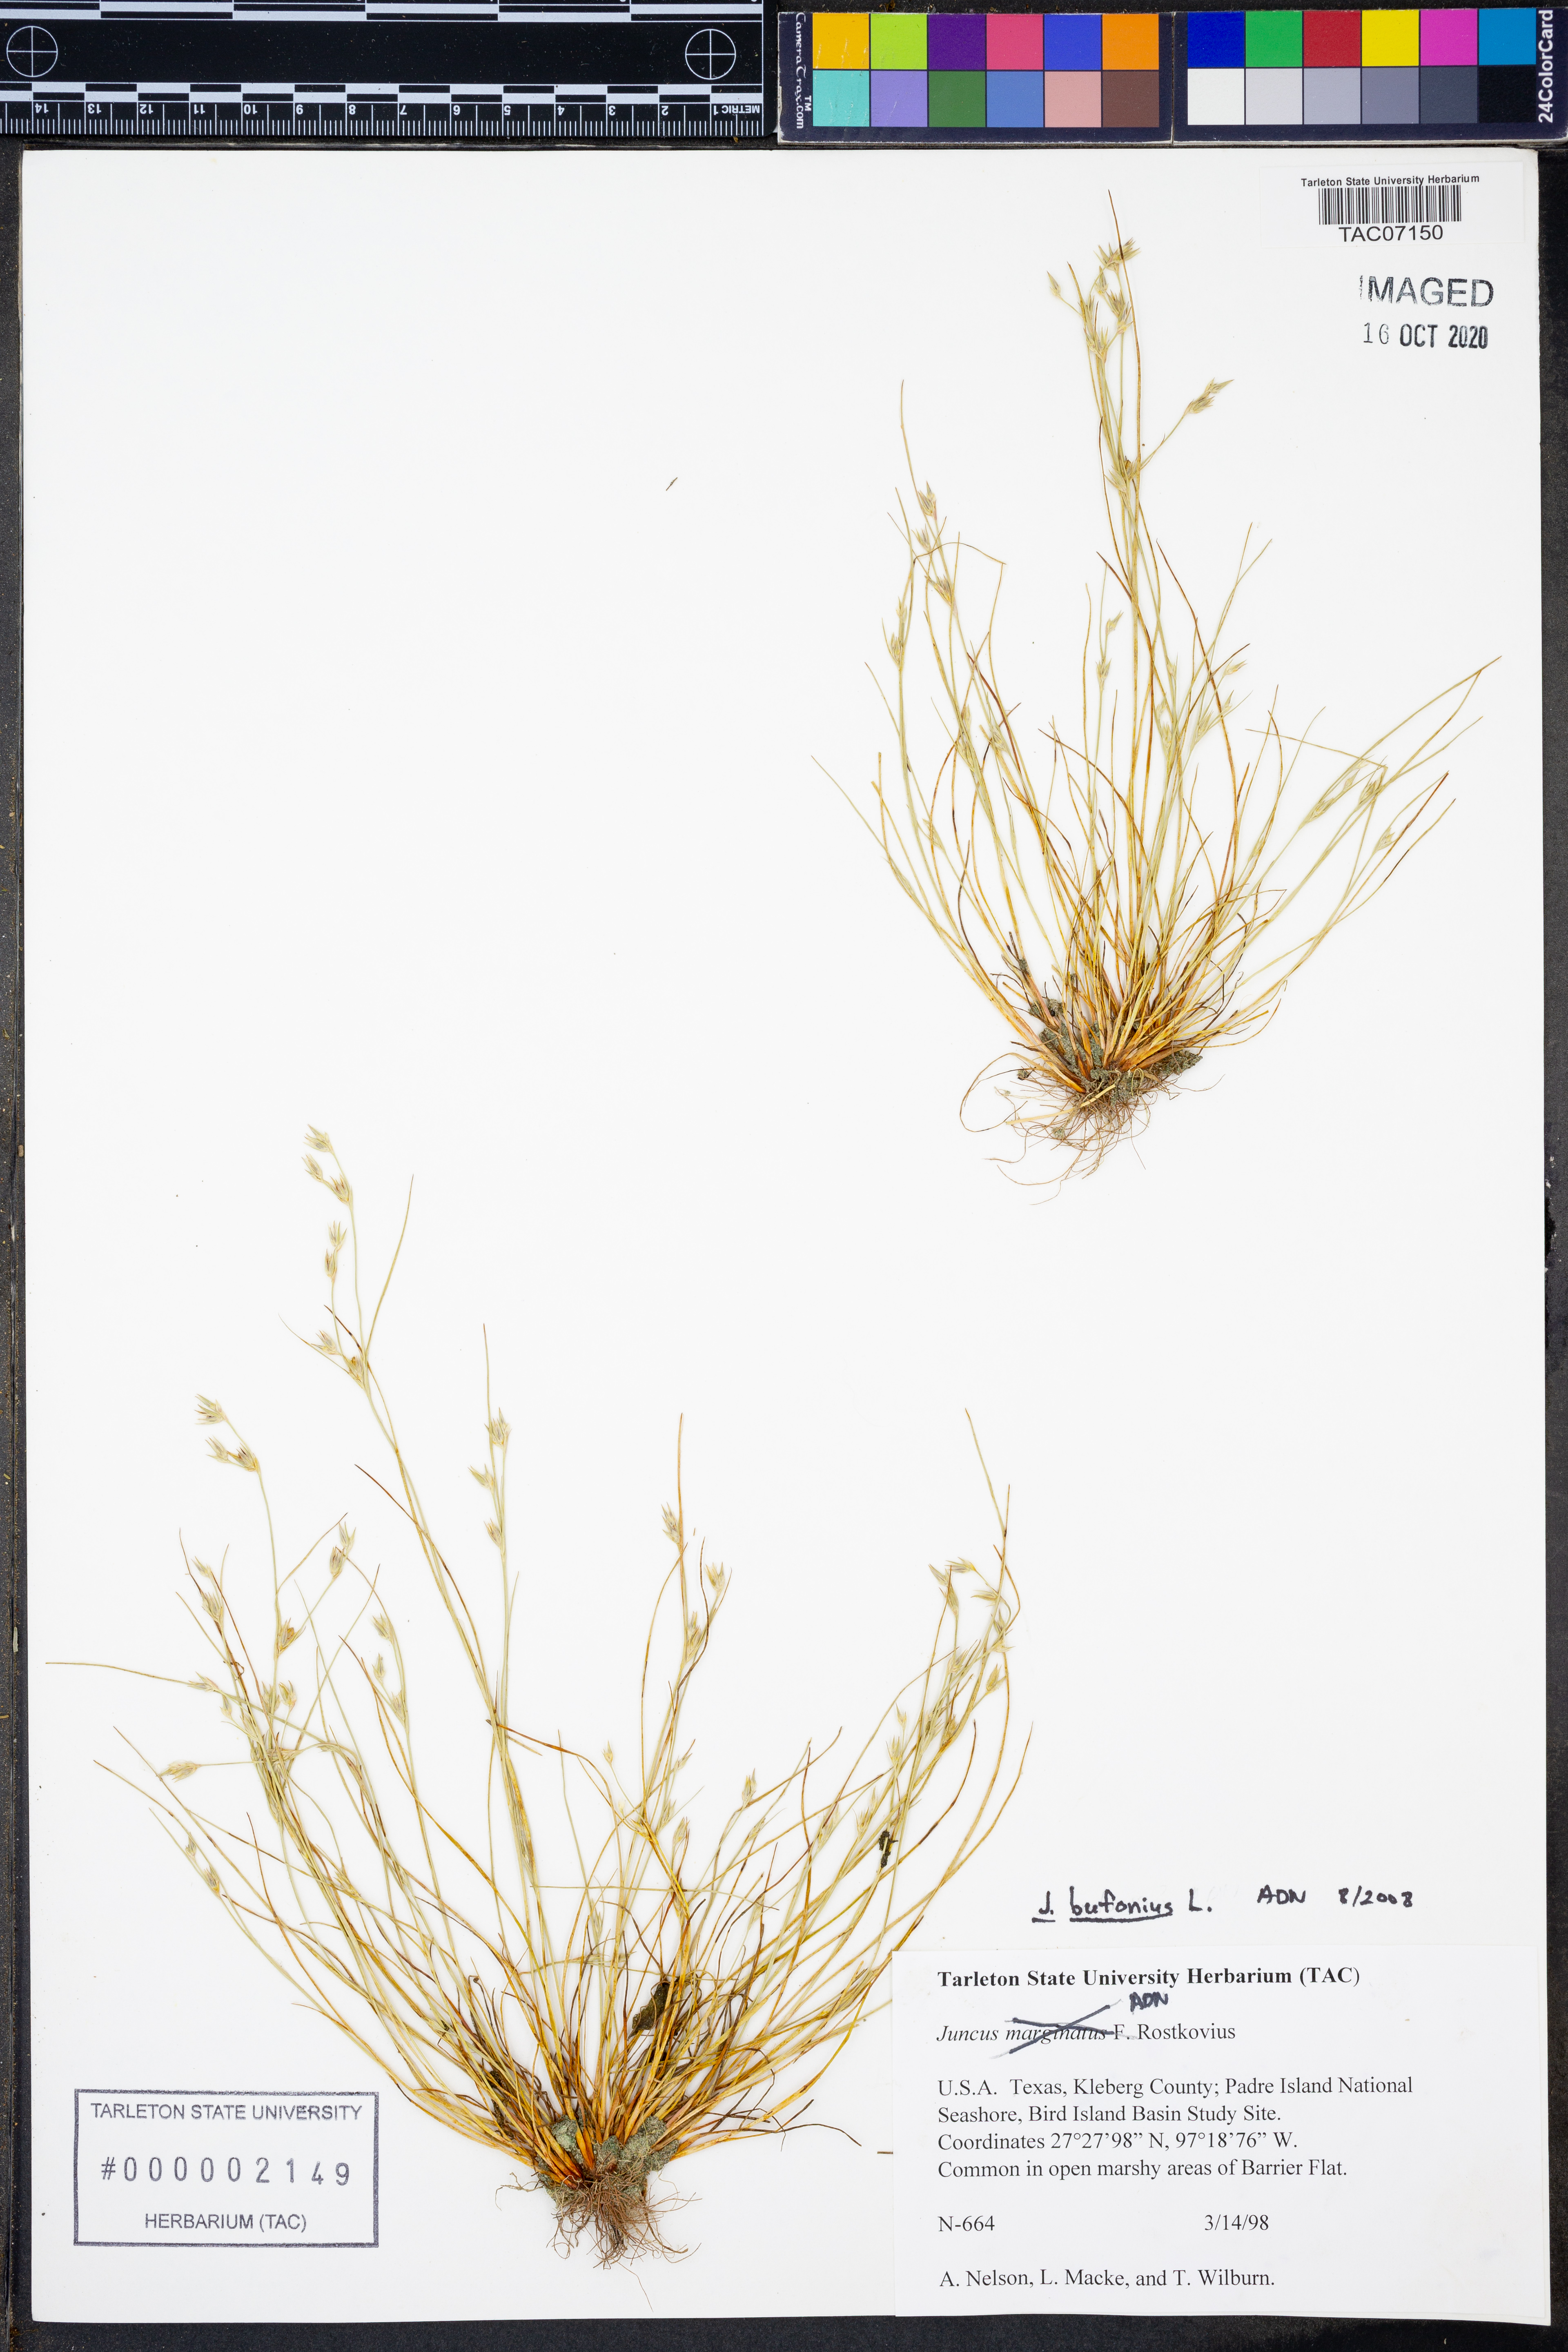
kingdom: Plantae
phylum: Tracheophyta
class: Liliopsida
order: Poales
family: Juncaceae
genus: Juncus
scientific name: Juncus bufonius
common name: Toad rush
